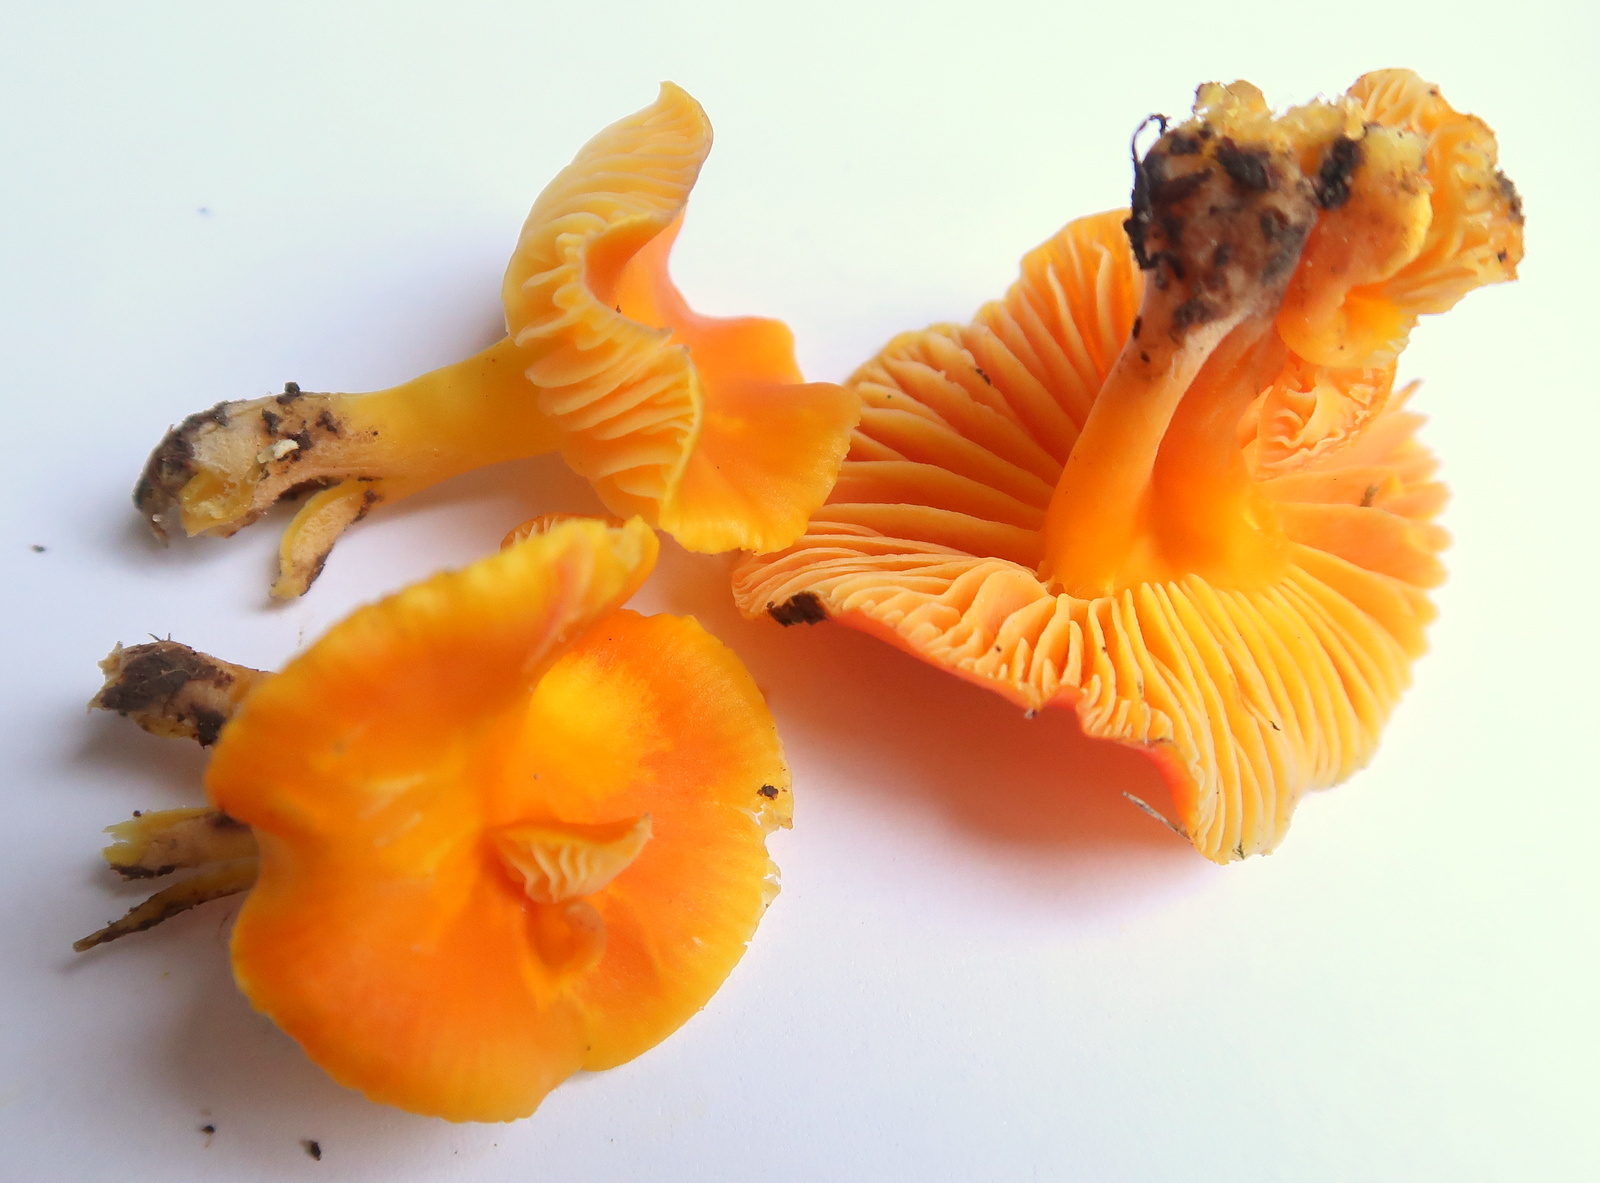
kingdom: Fungi
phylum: Basidiomycota
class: Agaricomycetes
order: Agaricales
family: Hygrophoraceae
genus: Hygrocybe
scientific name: Hygrocybe ceracea
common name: voksgul vokshat
